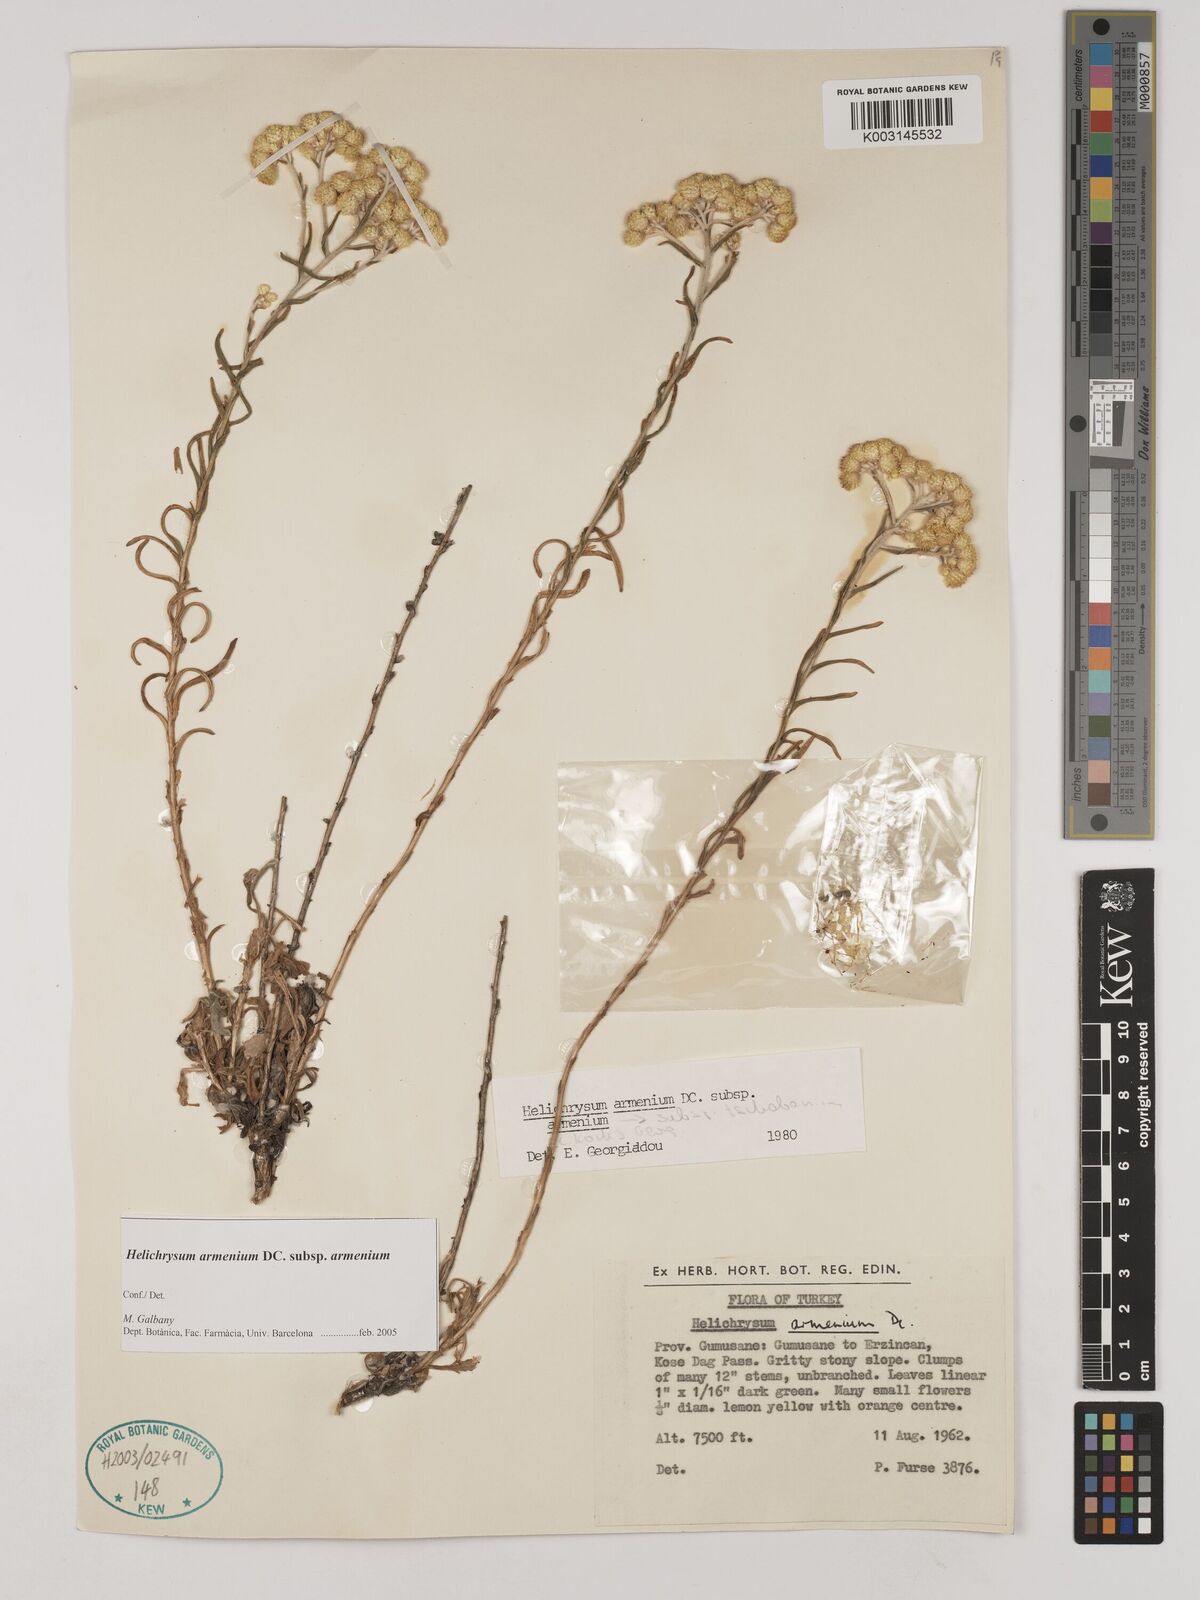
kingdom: Plantae
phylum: Tracheophyta
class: Magnoliopsida
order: Asterales
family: Asteraceae
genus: Helichrysum
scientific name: Helichrysum armenium
